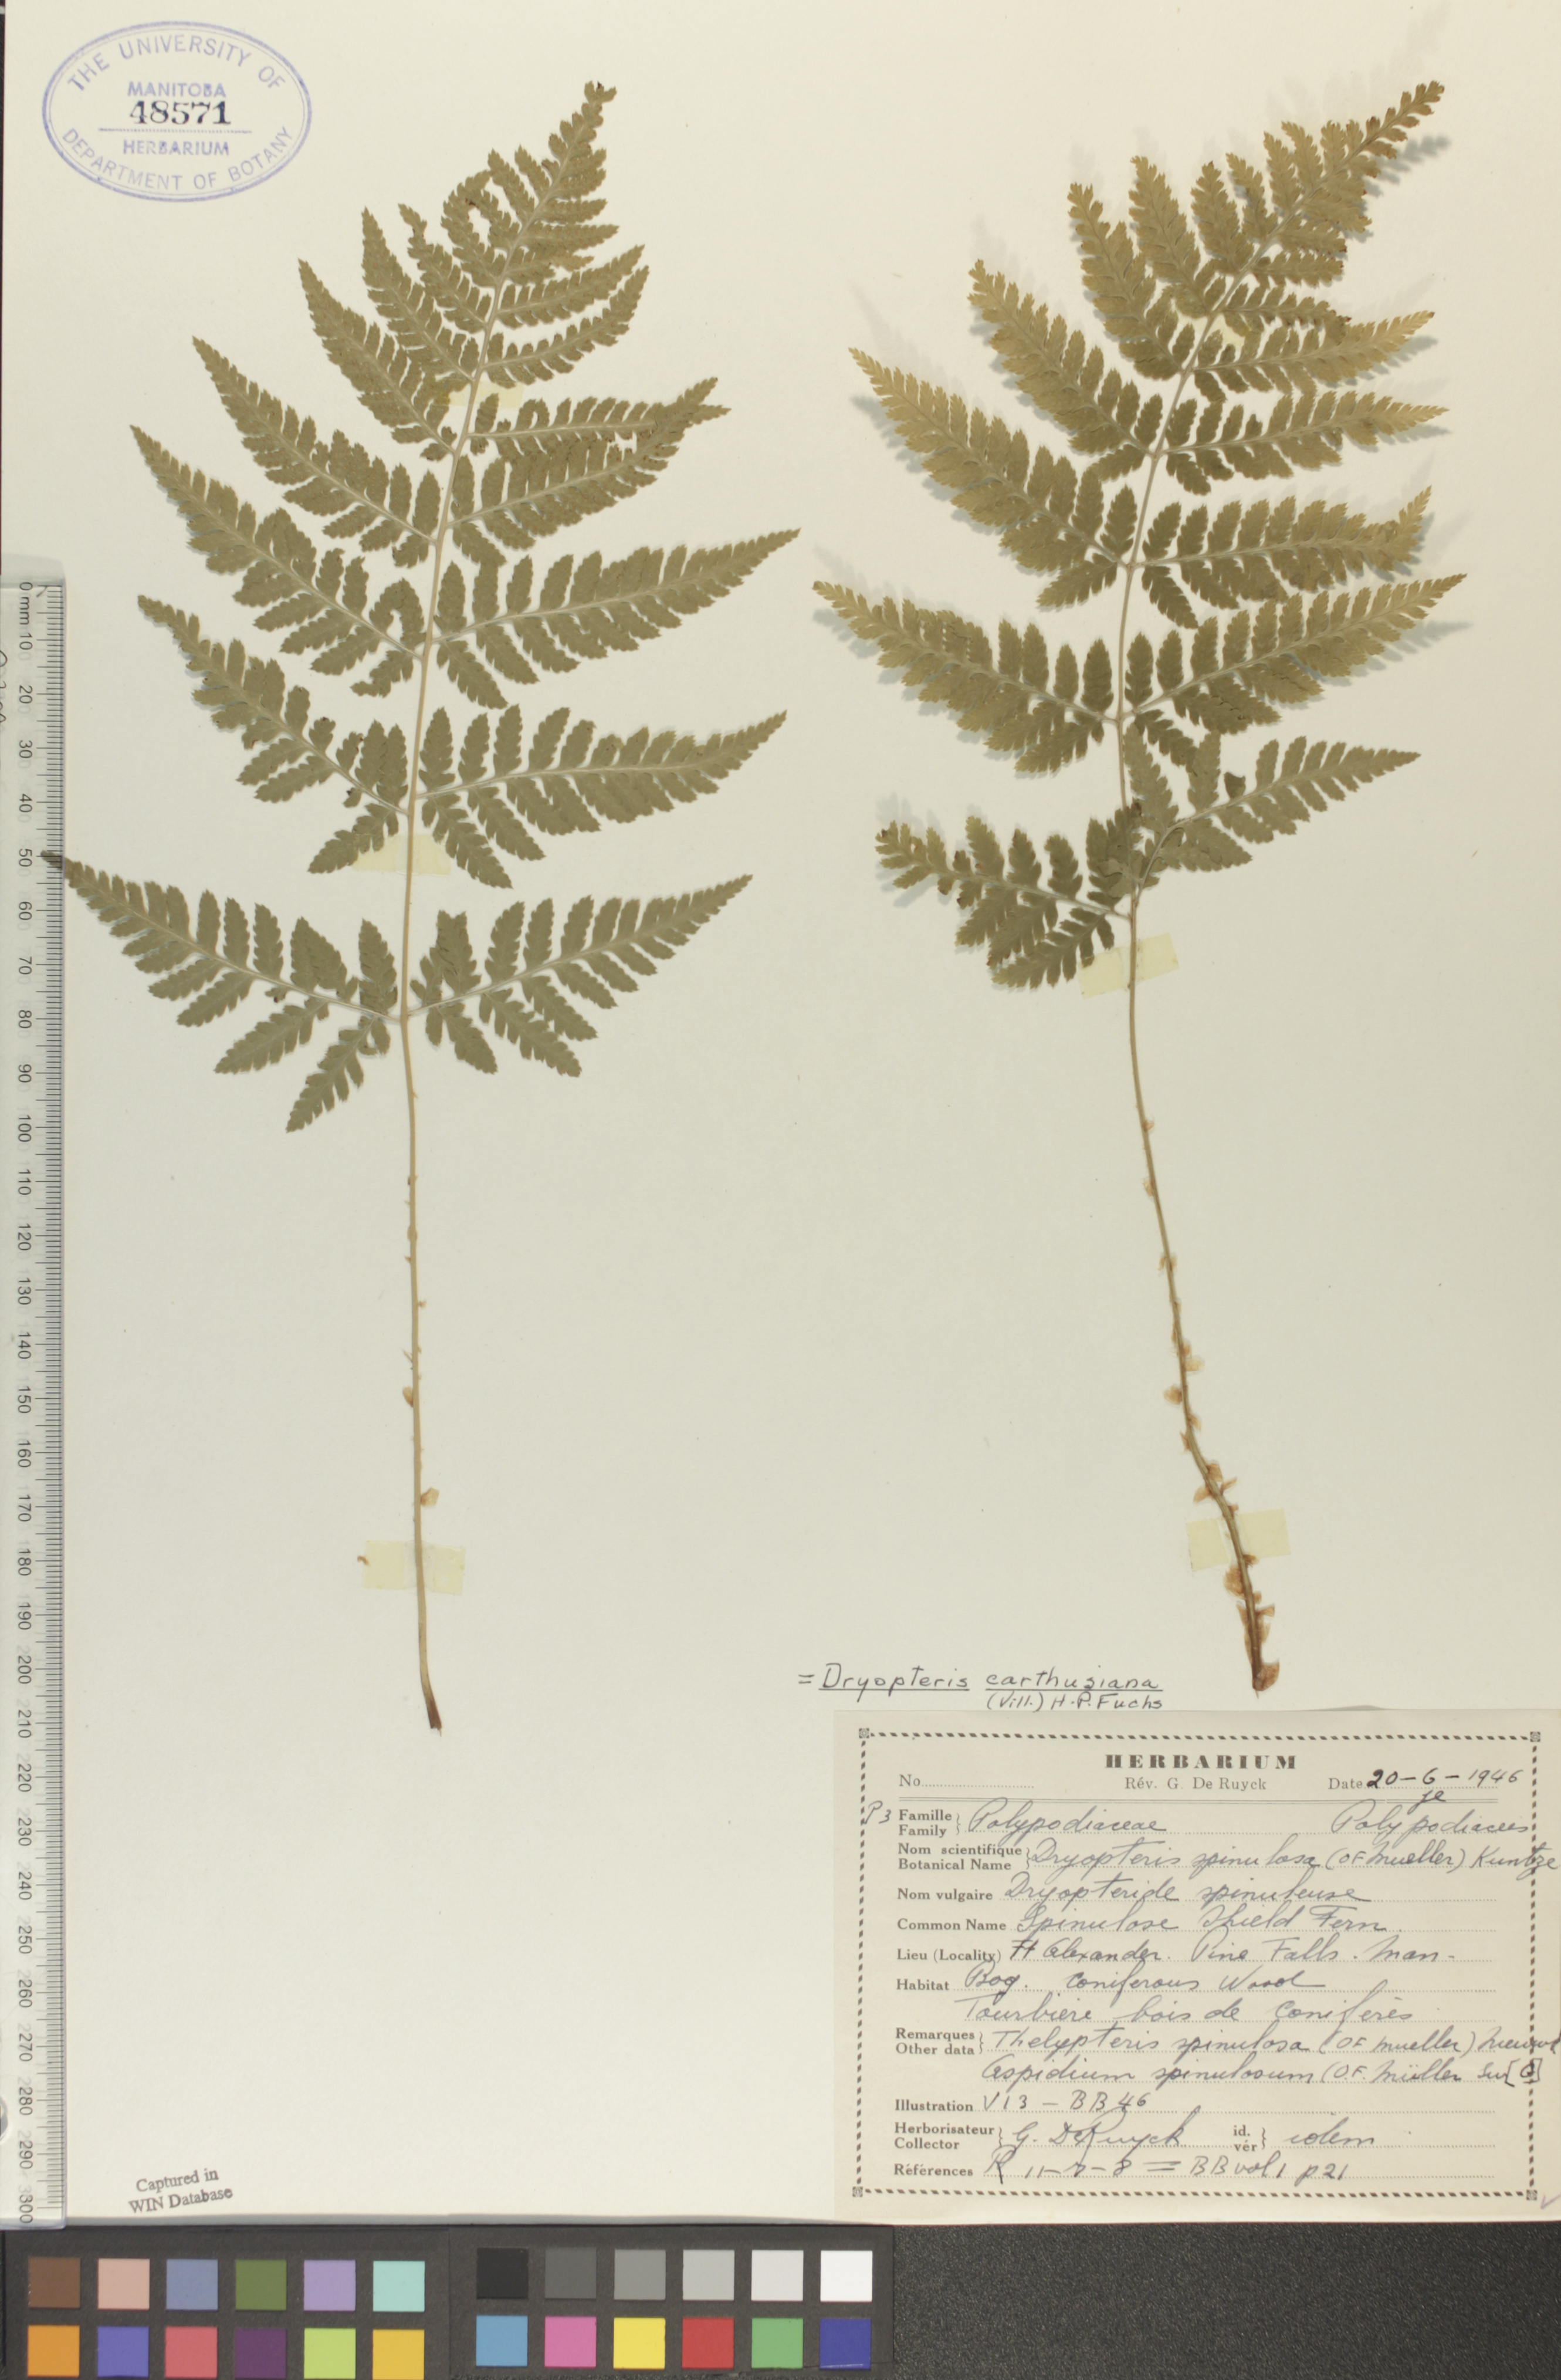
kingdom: Plantae
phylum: Tracheophyta
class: Polypodiopsida
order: Polypodiales
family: Dryopteridaceae
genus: Dryopteris
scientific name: Dryopteris carthusiana
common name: Narrow buckler-fern
